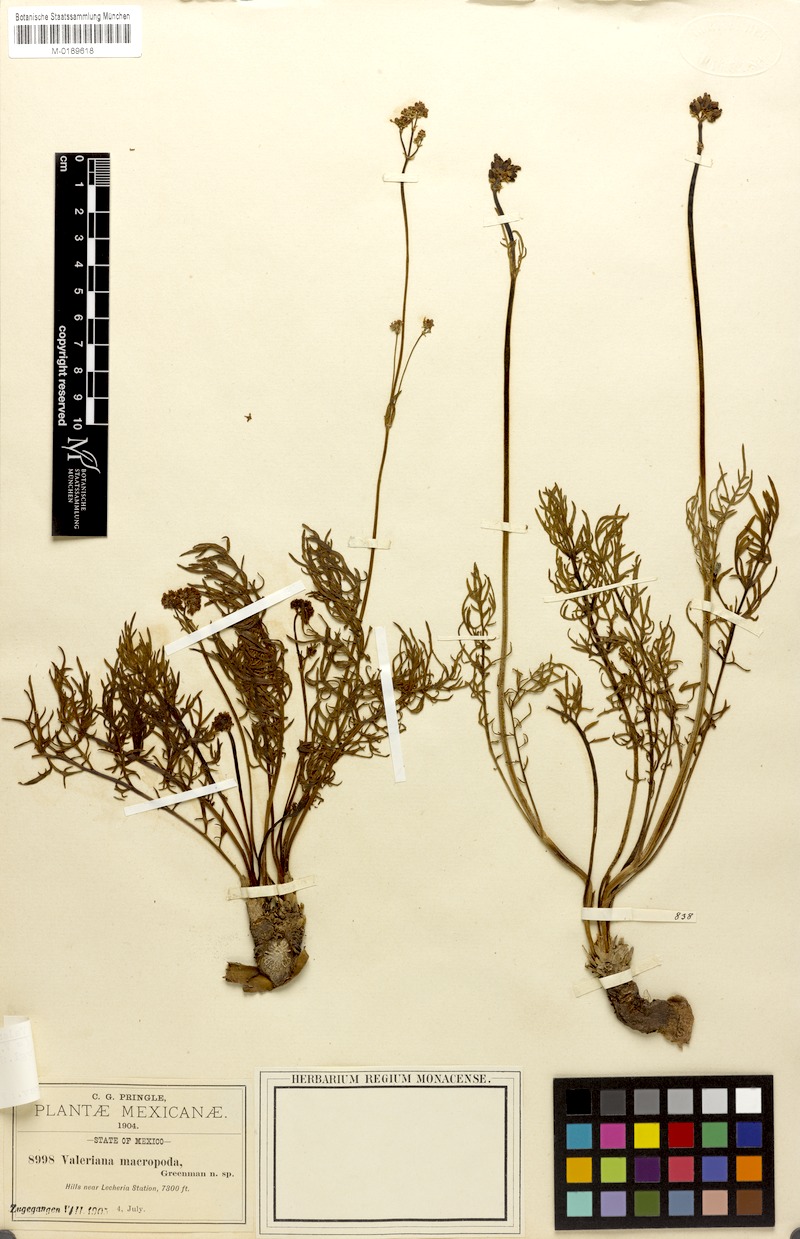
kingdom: Plantae
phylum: Tracheophyta
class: Magnoliopsida
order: Dipsacales
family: Caprifoliaceae
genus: Valeriana
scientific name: Valeriana laciniosa
